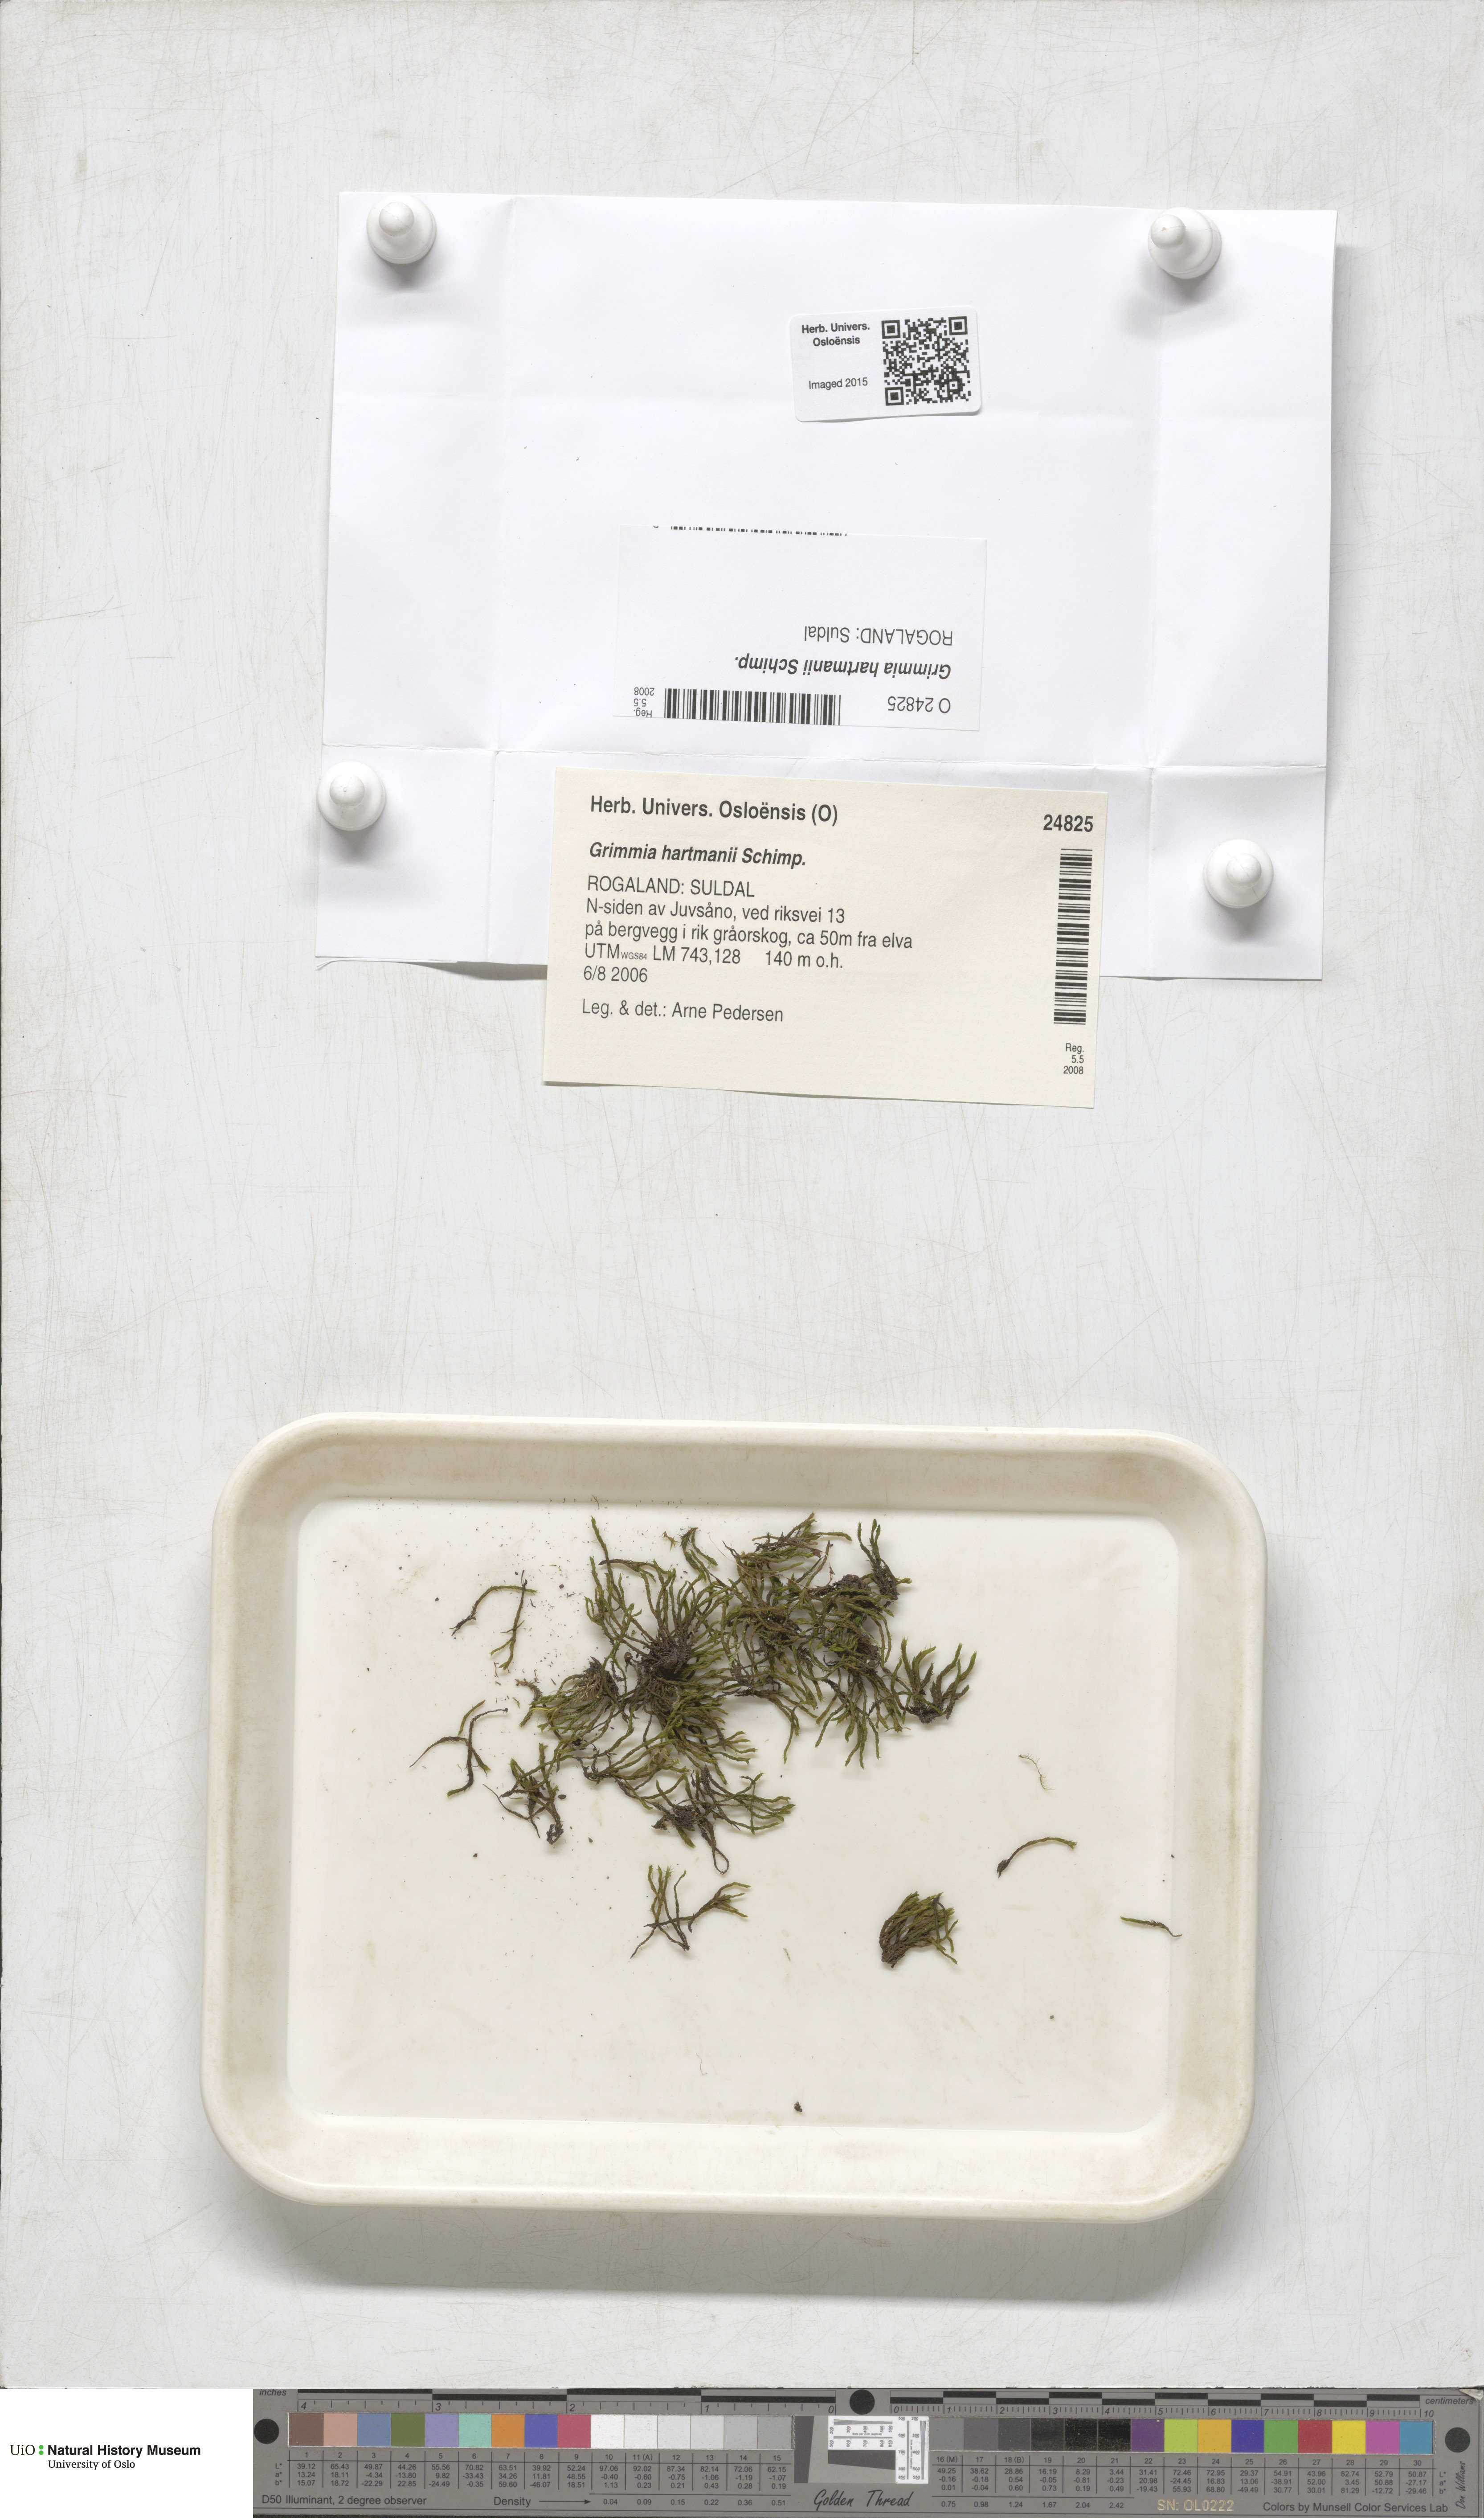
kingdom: Plantae
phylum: Bryophyta
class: Bryopsida
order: Grimmiales
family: Grimmiaceae
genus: Grimmia
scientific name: Grimmia hartmanii
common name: Hartman's grimmia
